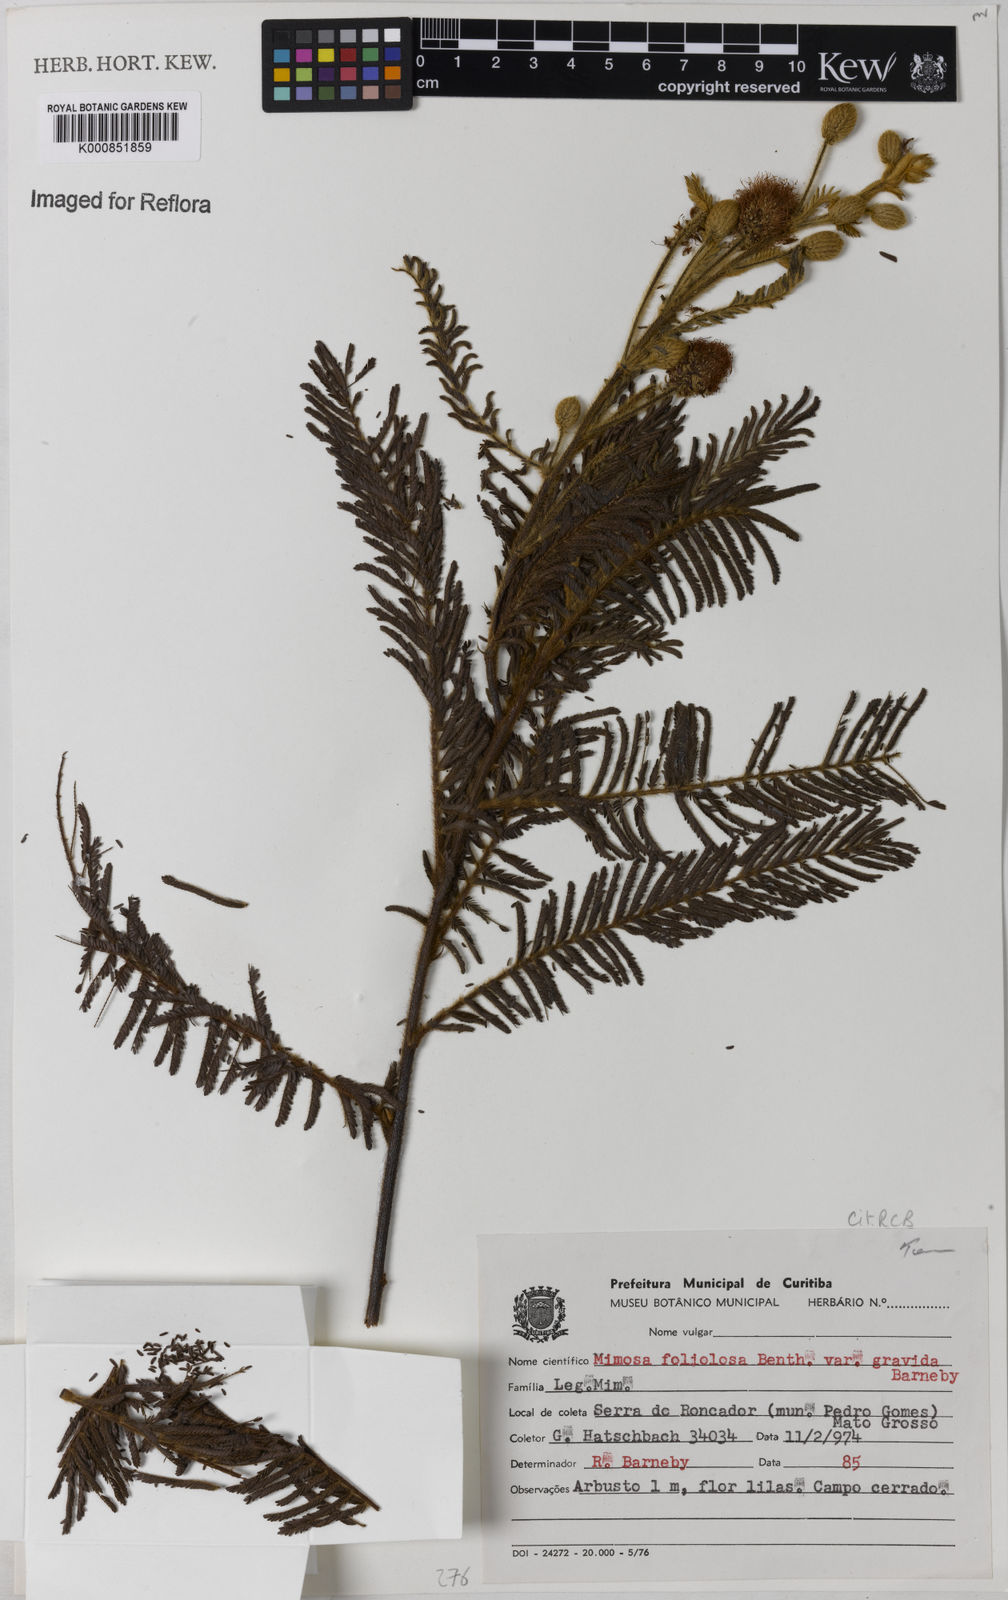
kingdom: Plantae
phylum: Tracheophyta
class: Magnoliopsida
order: Fabales
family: Fabaceae
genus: Mimosa
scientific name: Mimosa foliolosa
